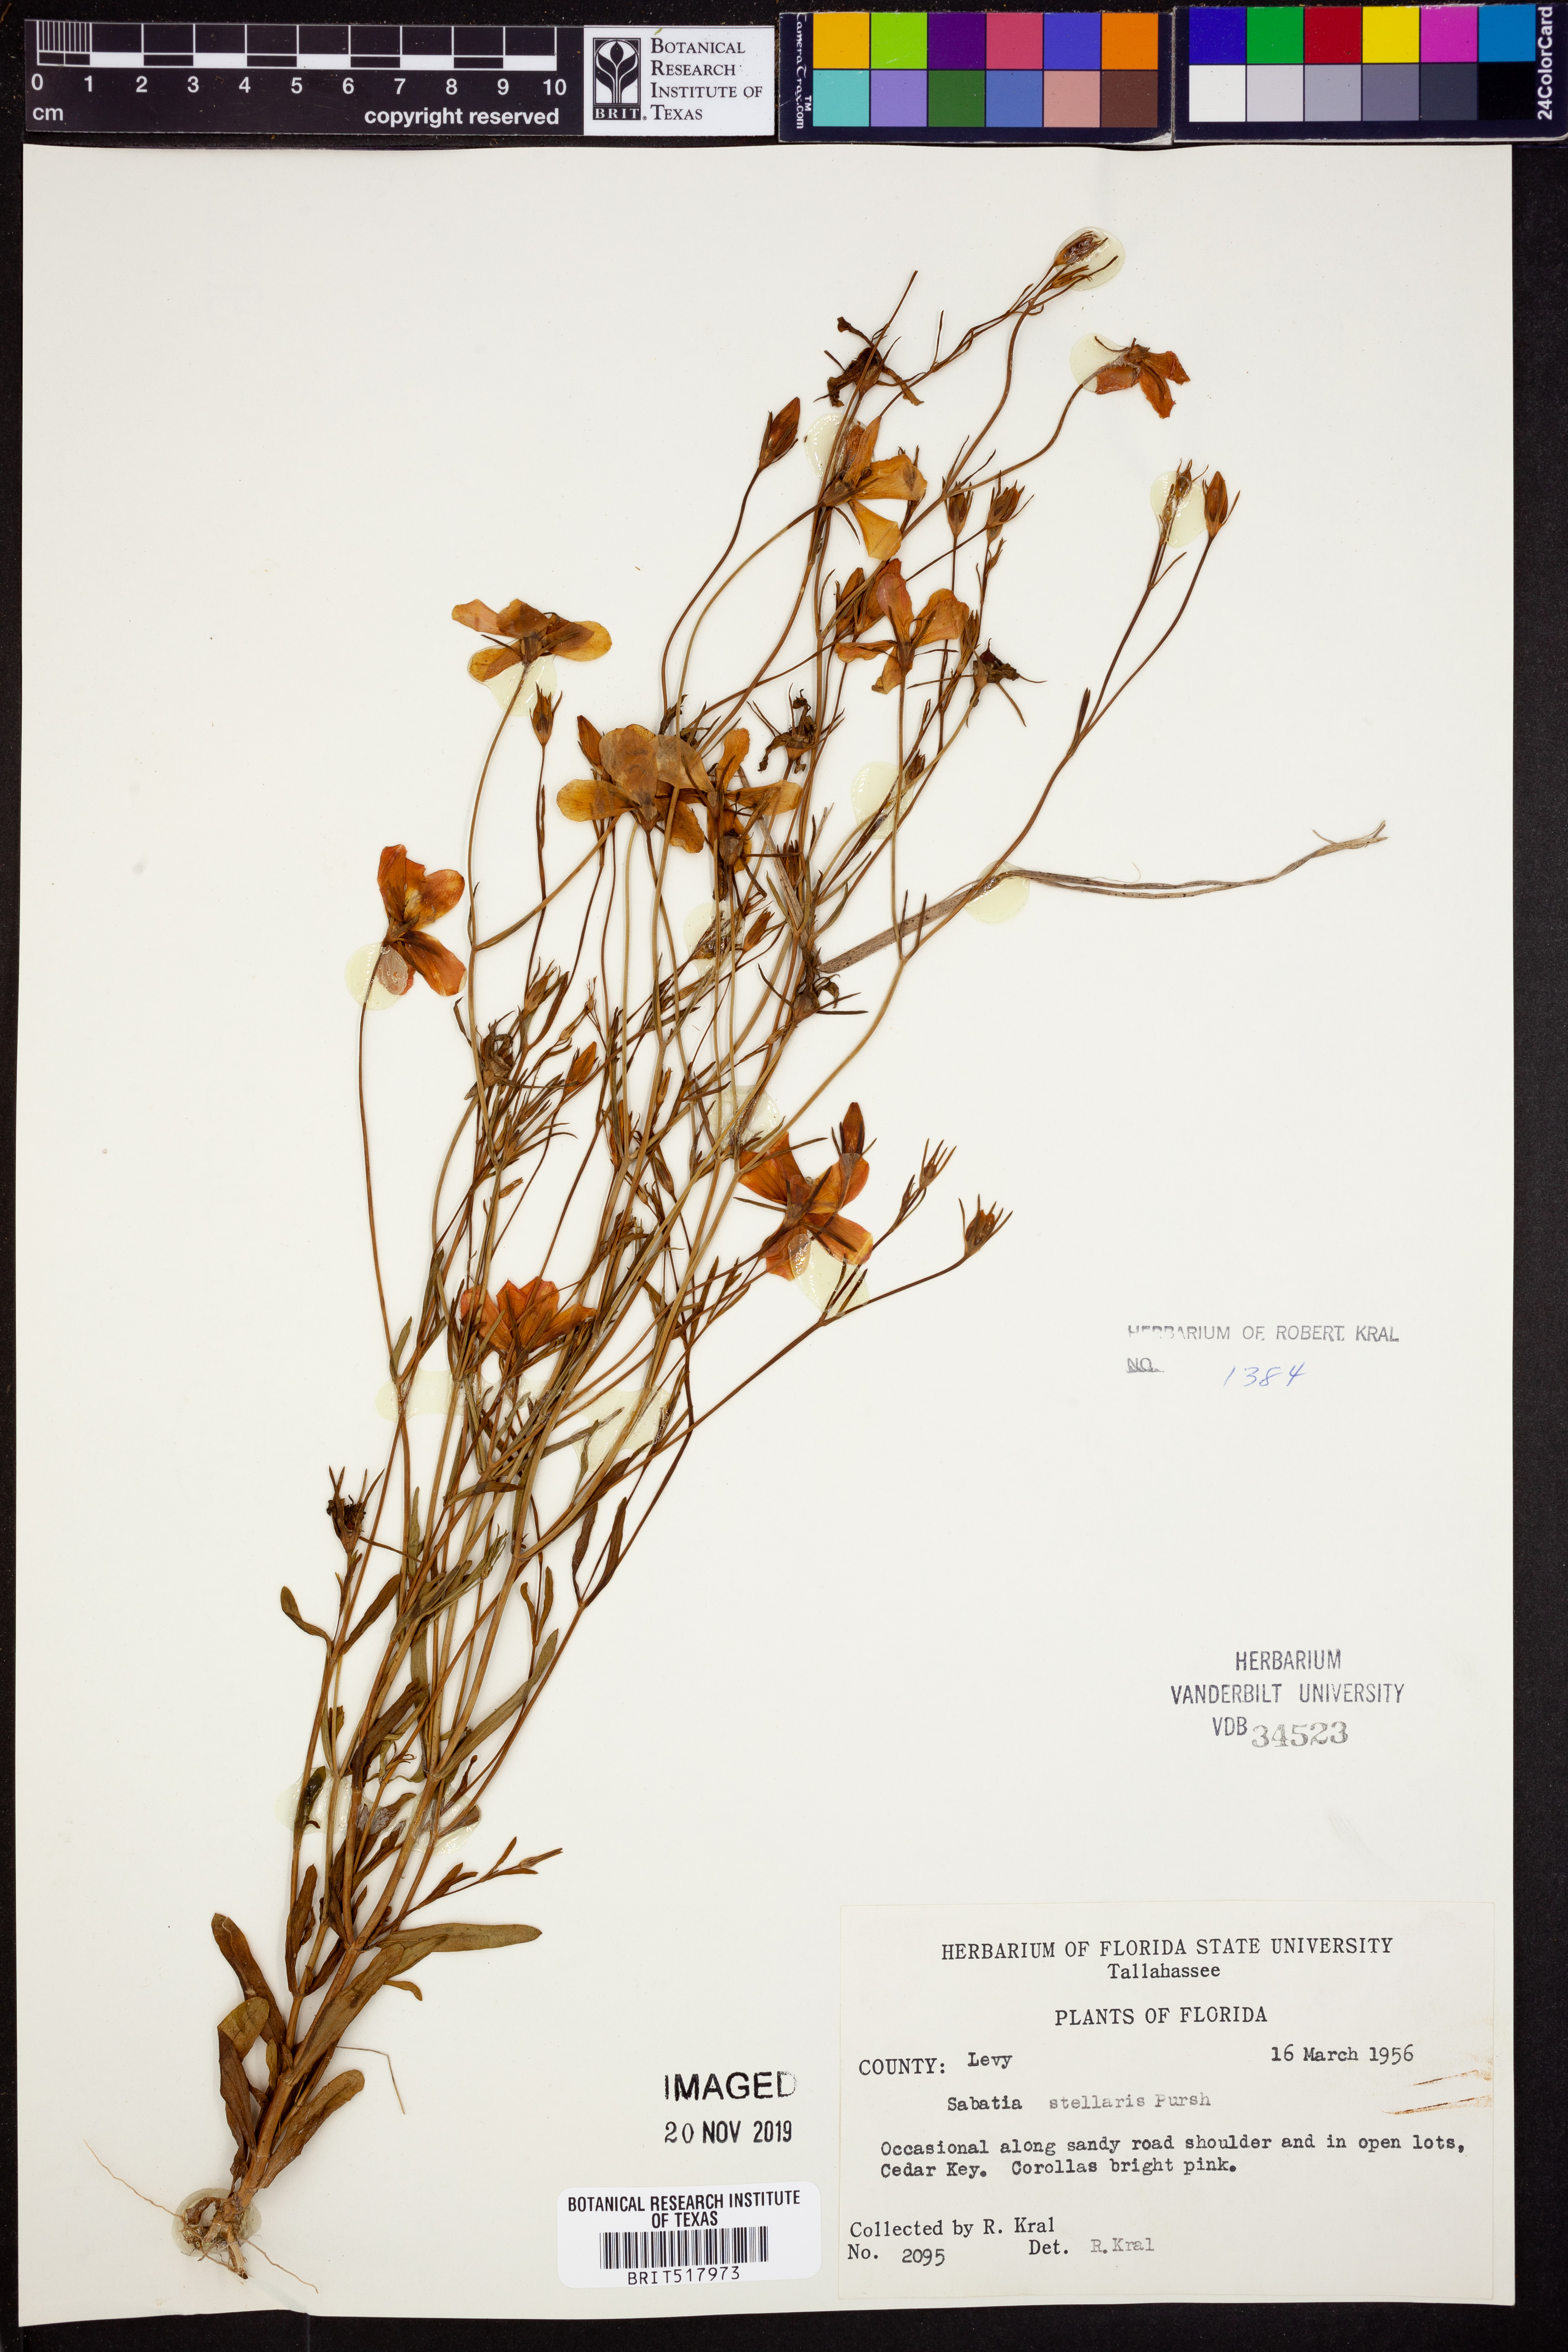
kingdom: Plantae
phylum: Tracheophyta
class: Magnoliopsida
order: Gentianales
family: Gentianaceae
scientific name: Gentianaceae
